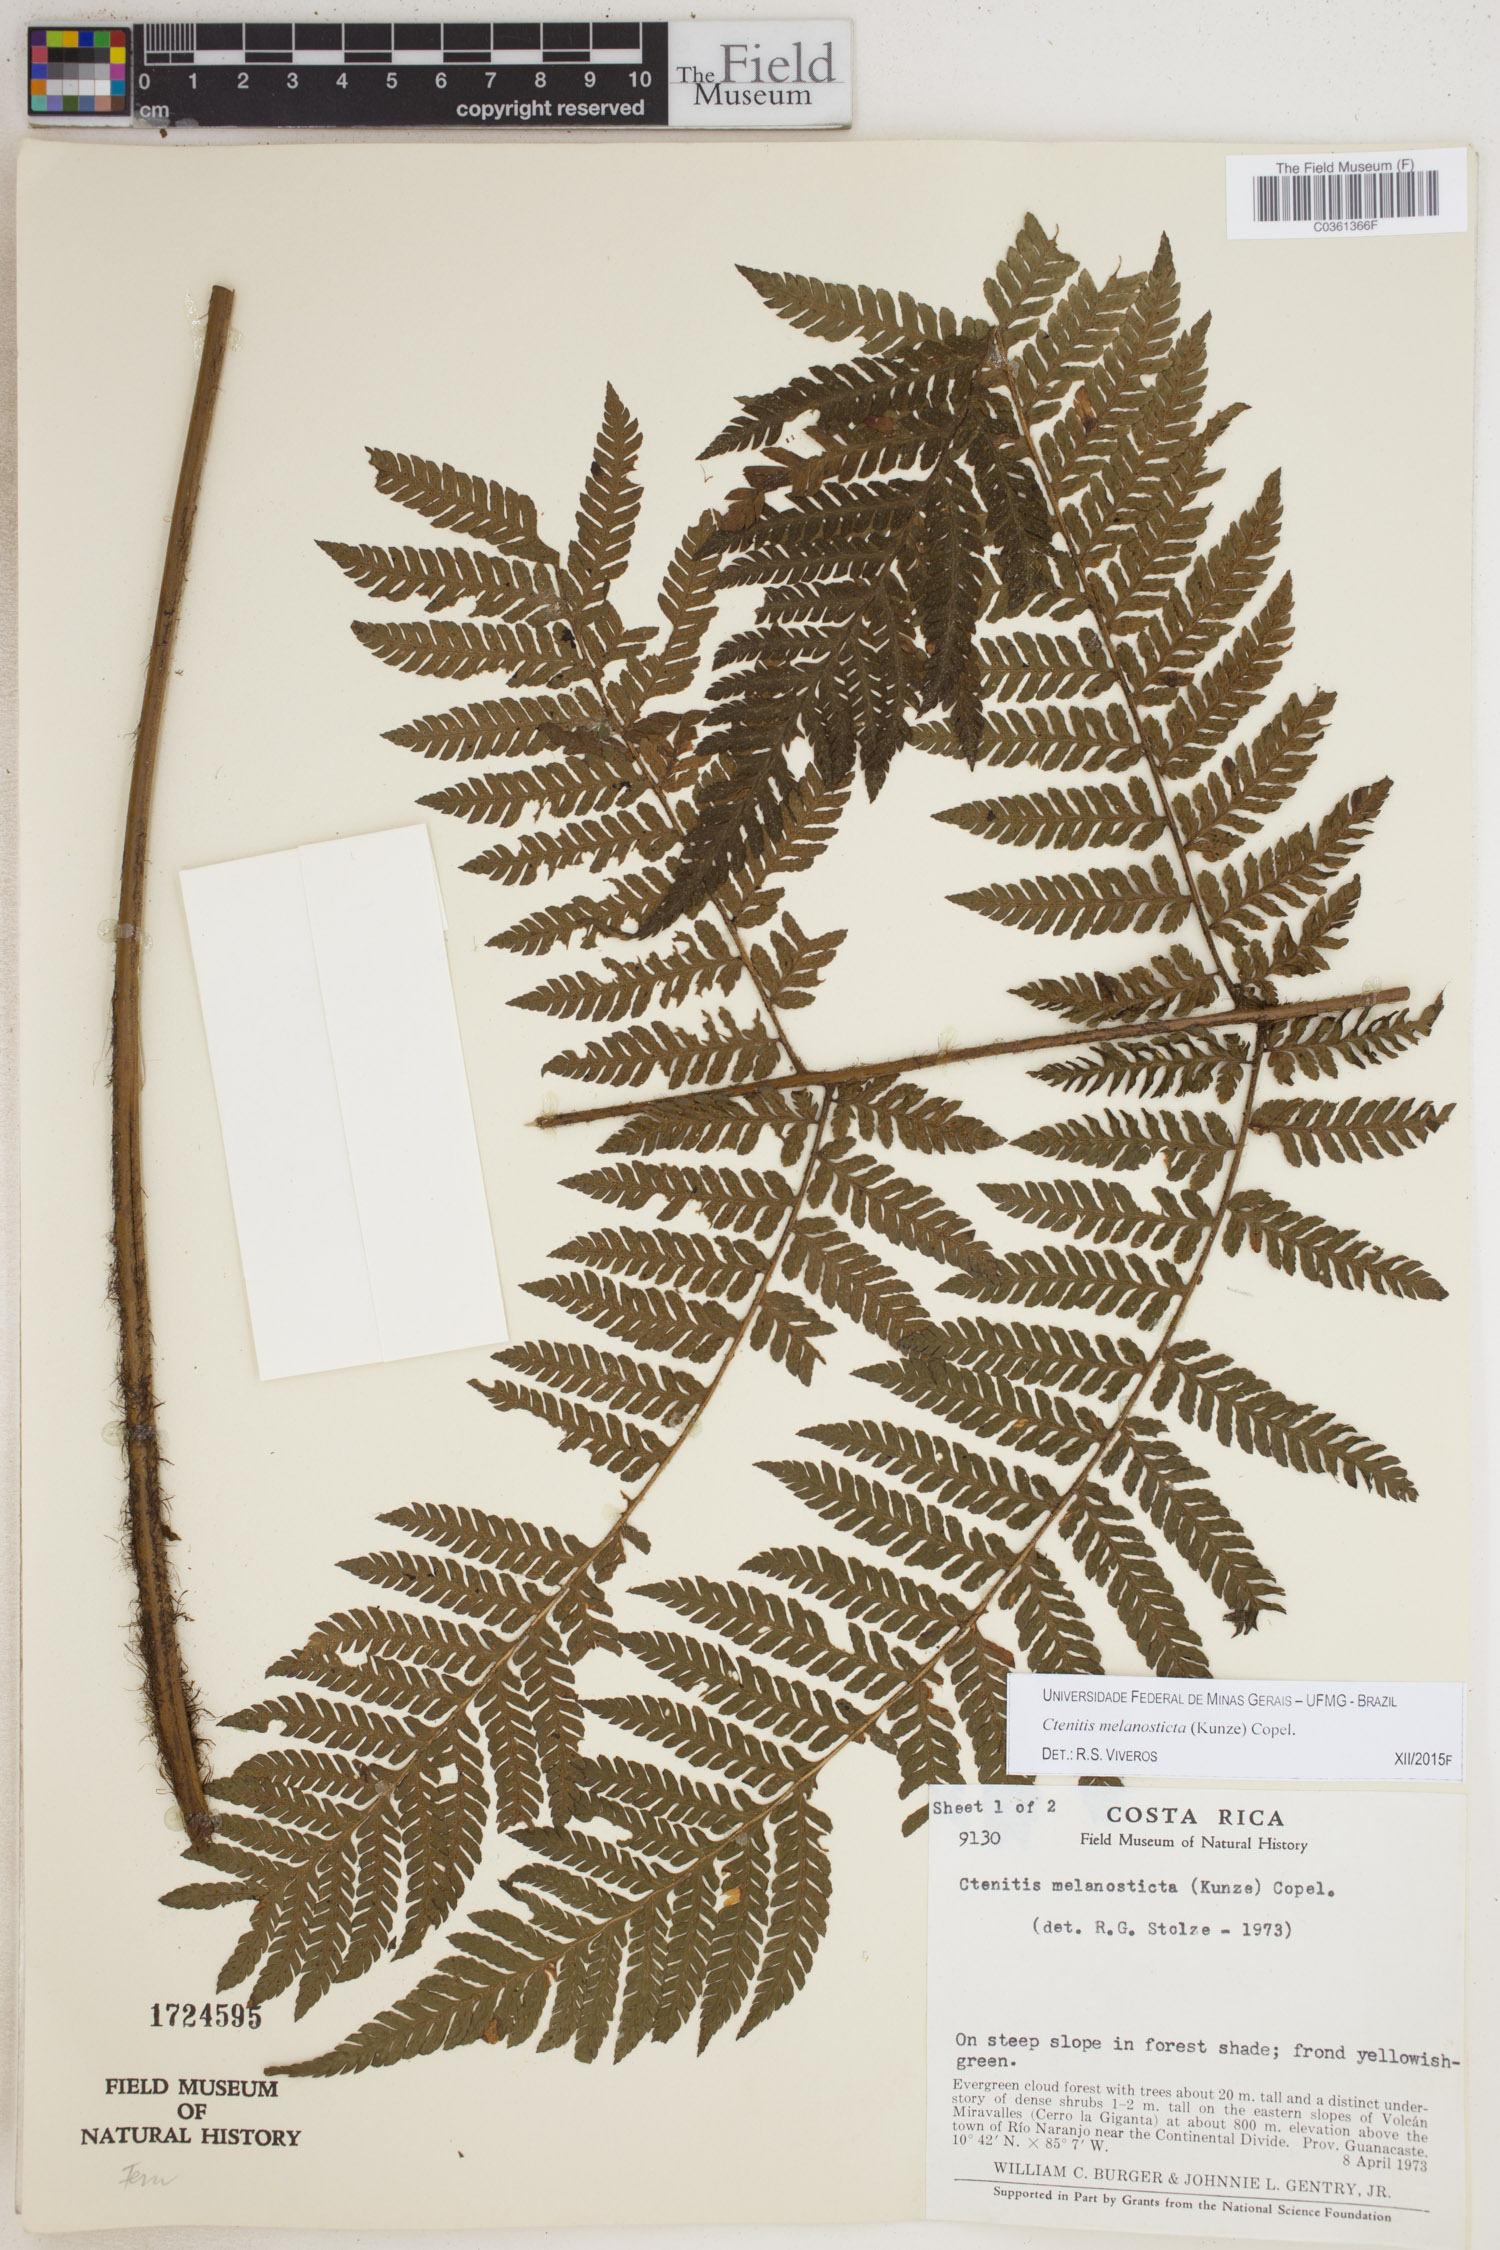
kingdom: Plantae
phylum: Tracheophyta
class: Polypodiopsida
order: Polypodiales
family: Dryopteridaceae
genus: Ctenitis
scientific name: Ctenitis melanosticta
